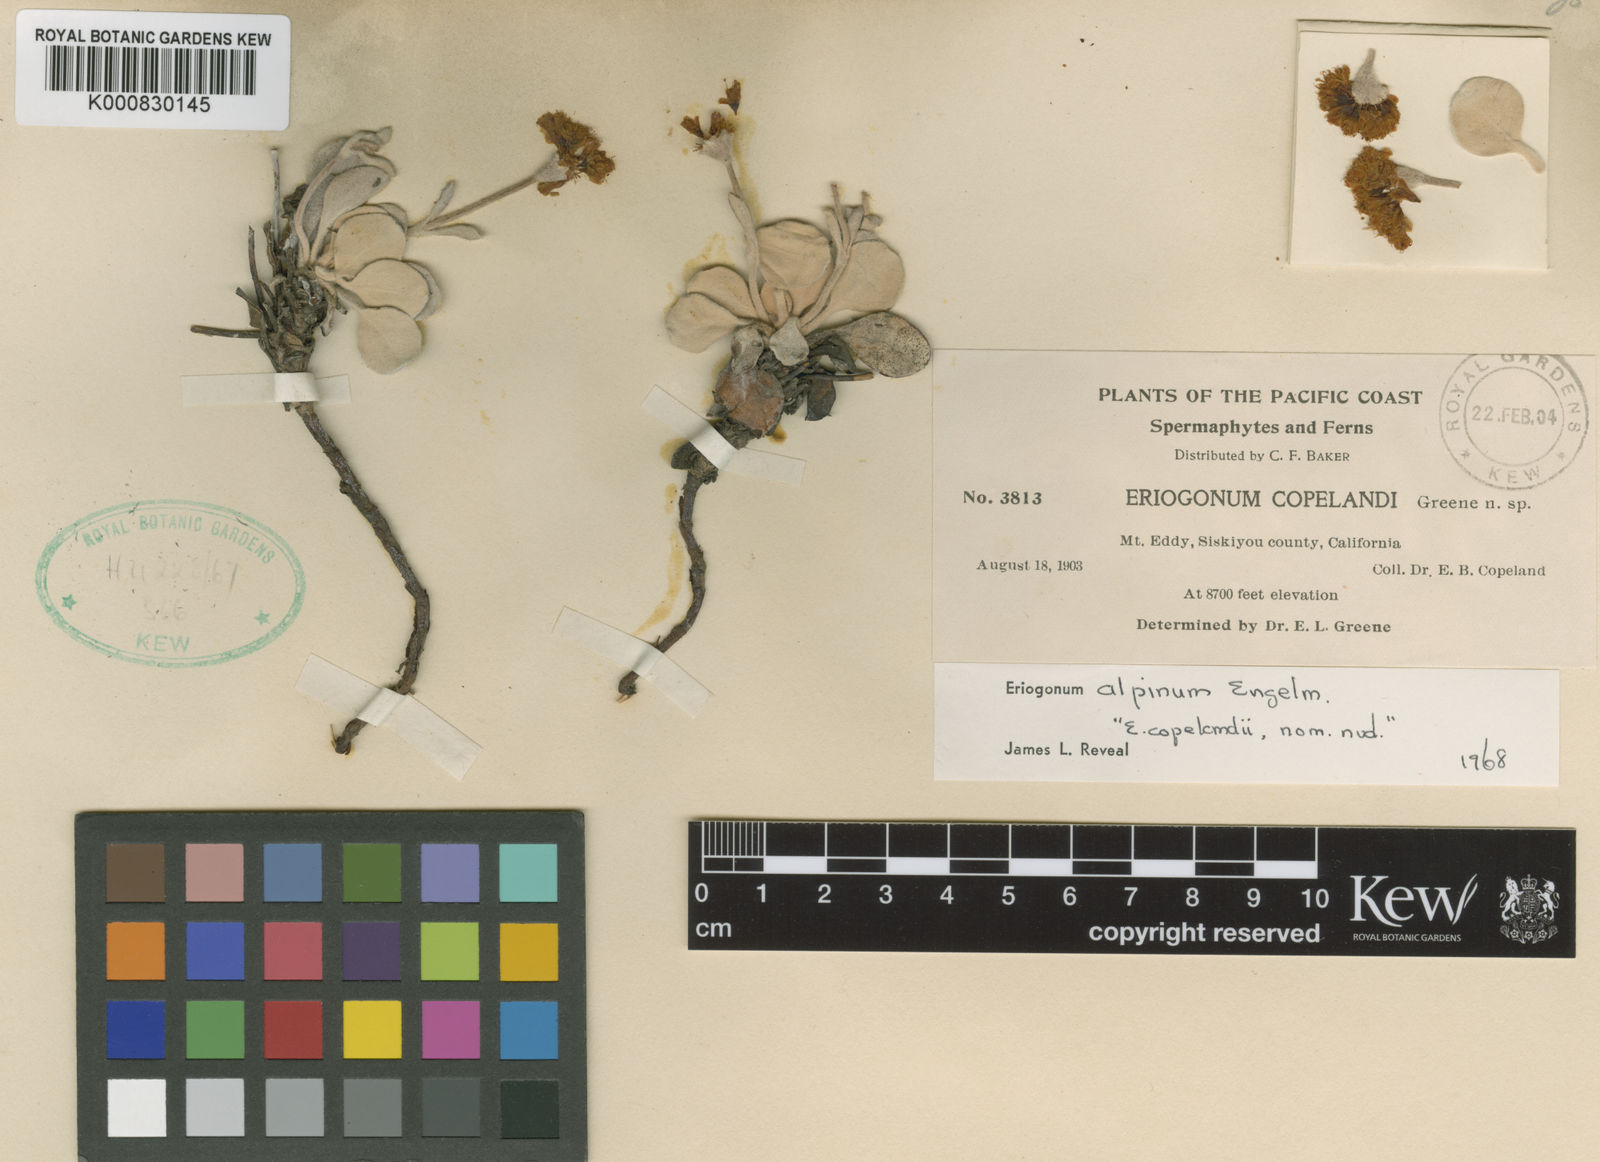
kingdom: Plantae
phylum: Tracheophyta
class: Magnoliopsida
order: Caryophyllales
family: Polygonaceae
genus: Eriogonum
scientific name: Eriogonum alpinum
